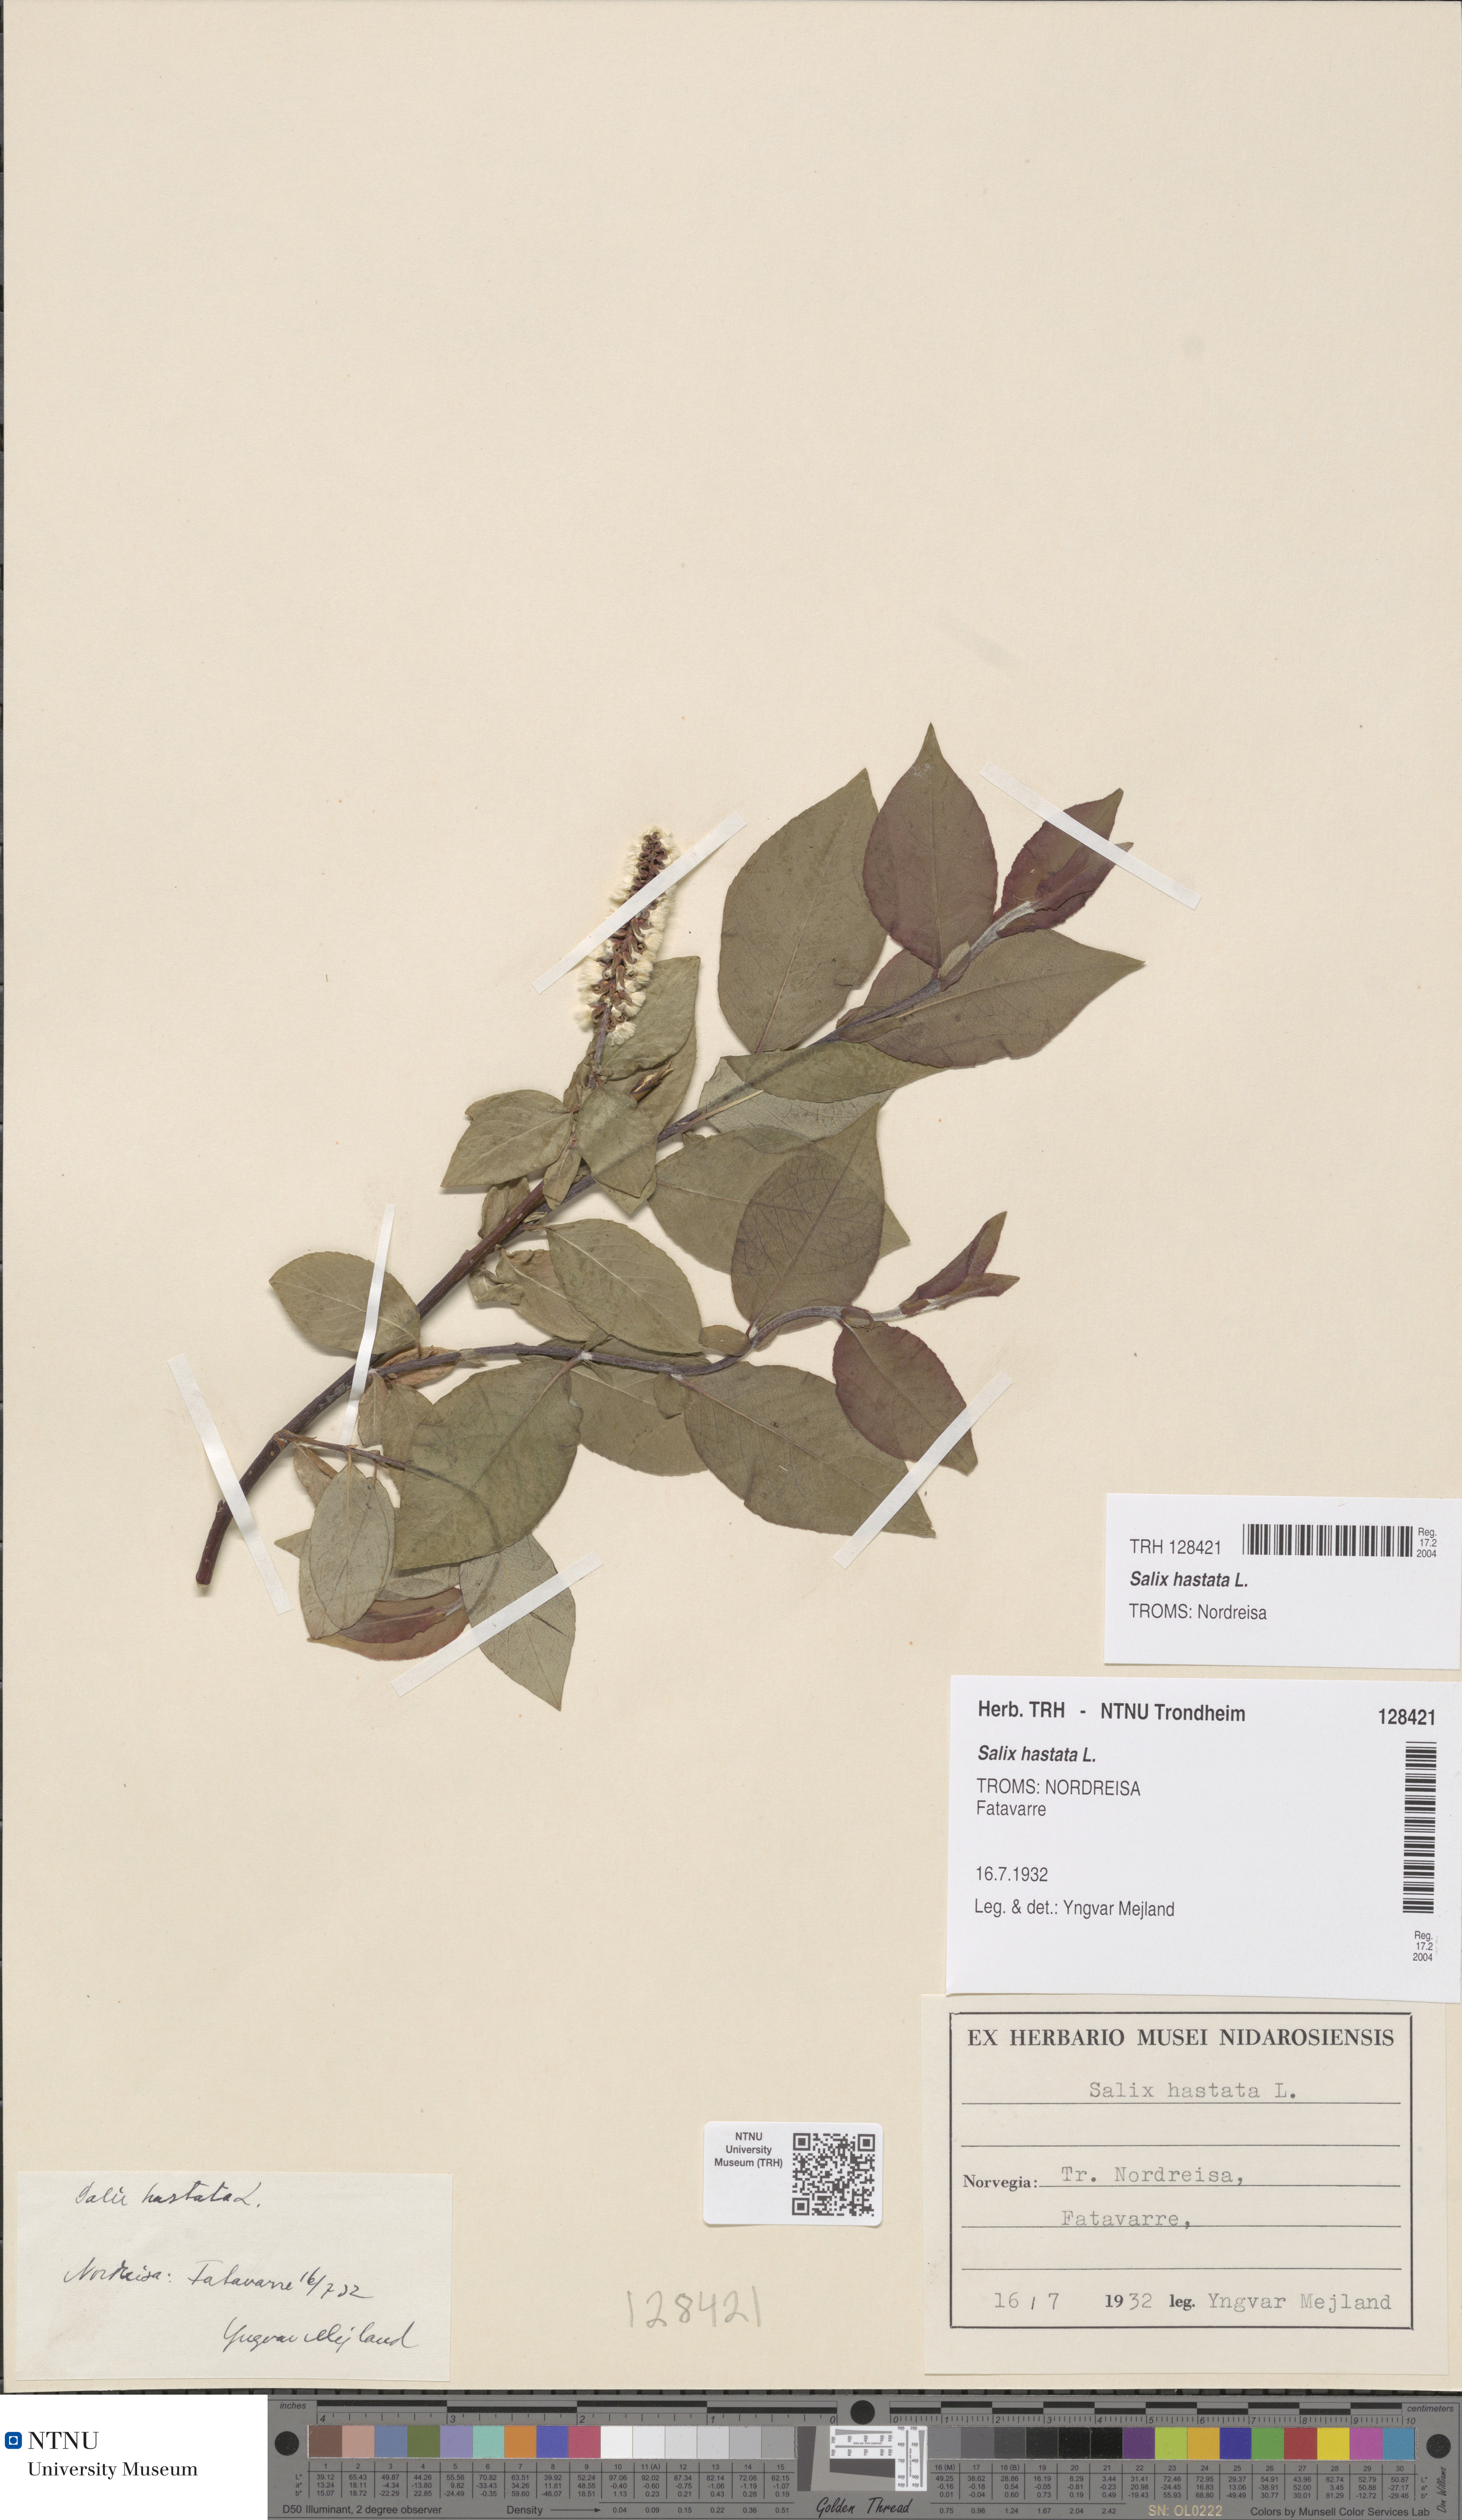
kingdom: Plantae
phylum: Tracheophyta
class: Magnoliopsida
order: Malpighiales
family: Salicaceae
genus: Salix
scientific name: Salix hastata
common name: Halberd willow
